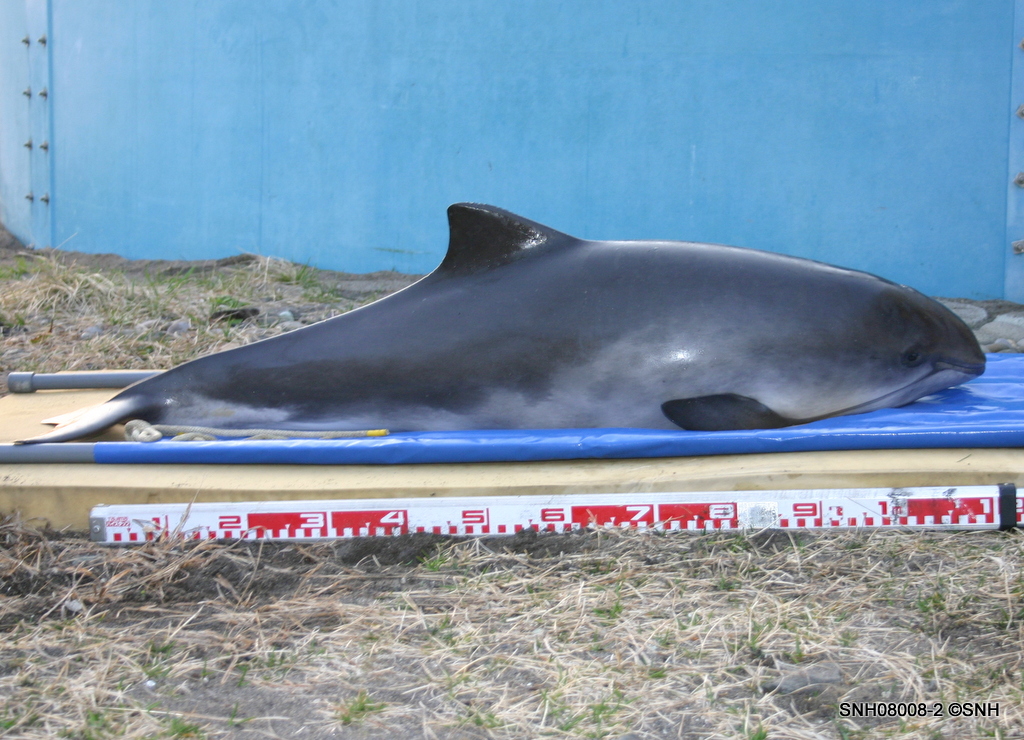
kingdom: Animalia
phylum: Chordata
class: Mammalia
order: Cetacea
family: Phocoenidae
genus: Phocoena
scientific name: Phocoena phocoena
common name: Harbour porpoise
